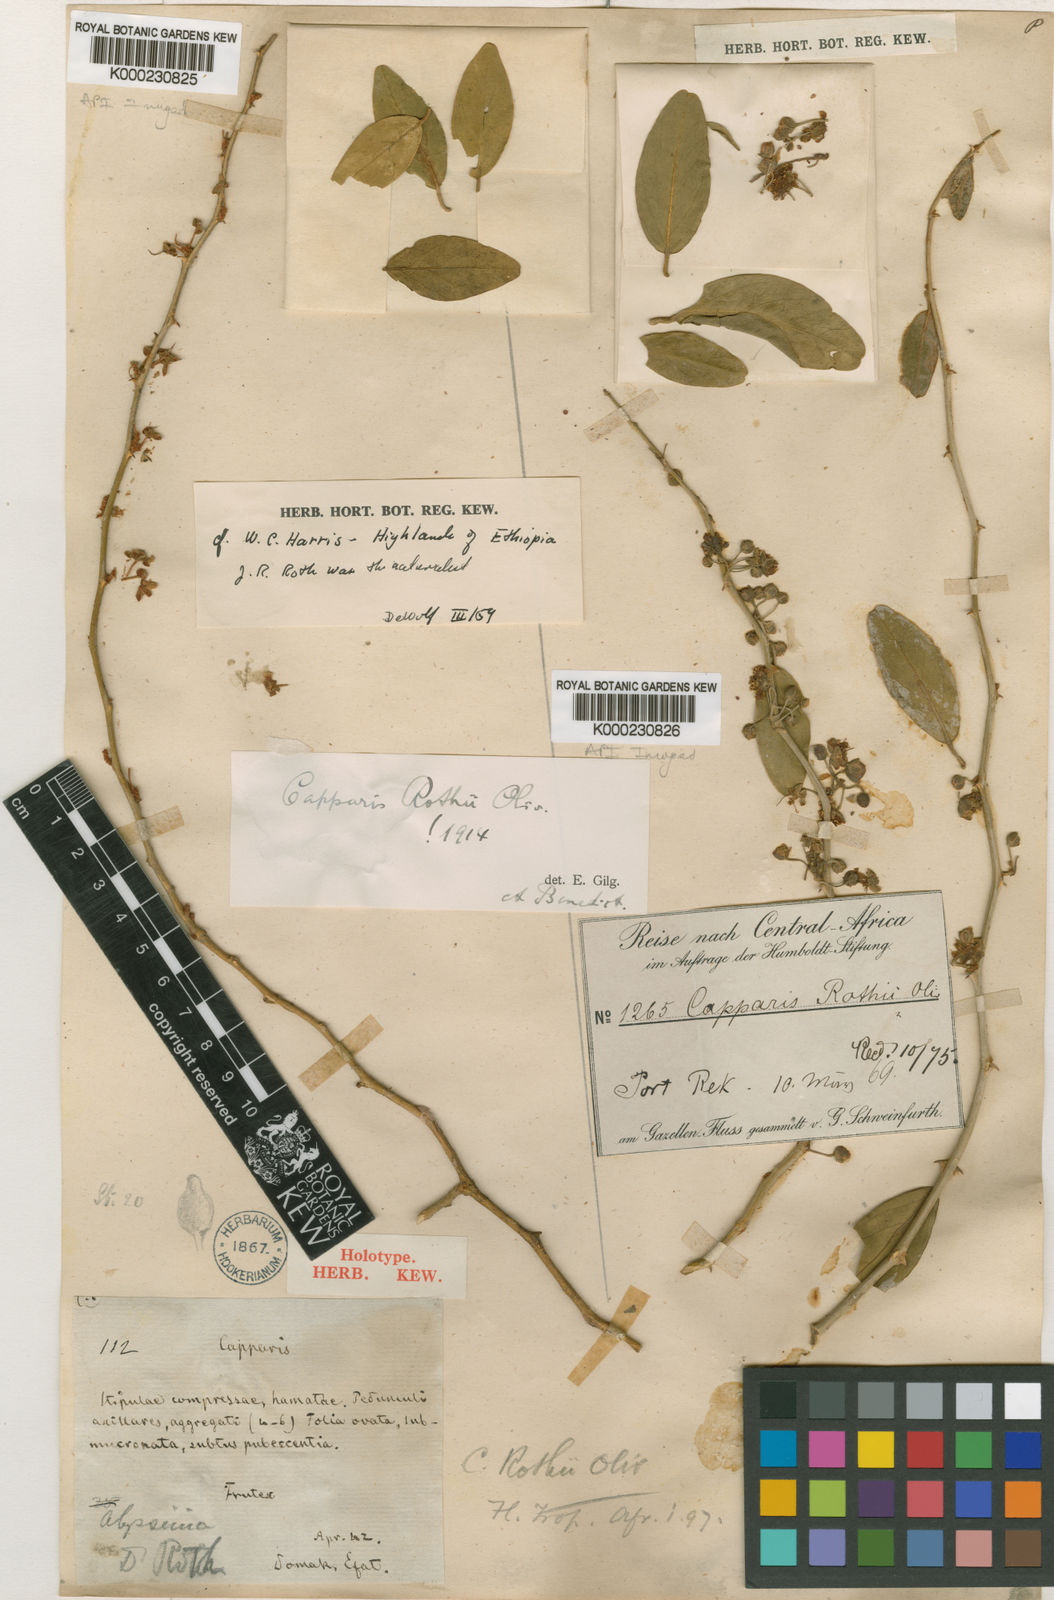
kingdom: Plantae
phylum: Tracheophyta
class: Magnoliopsida
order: Brassicales
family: Capparaceae
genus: Capparis
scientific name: Capparis fascicularis
